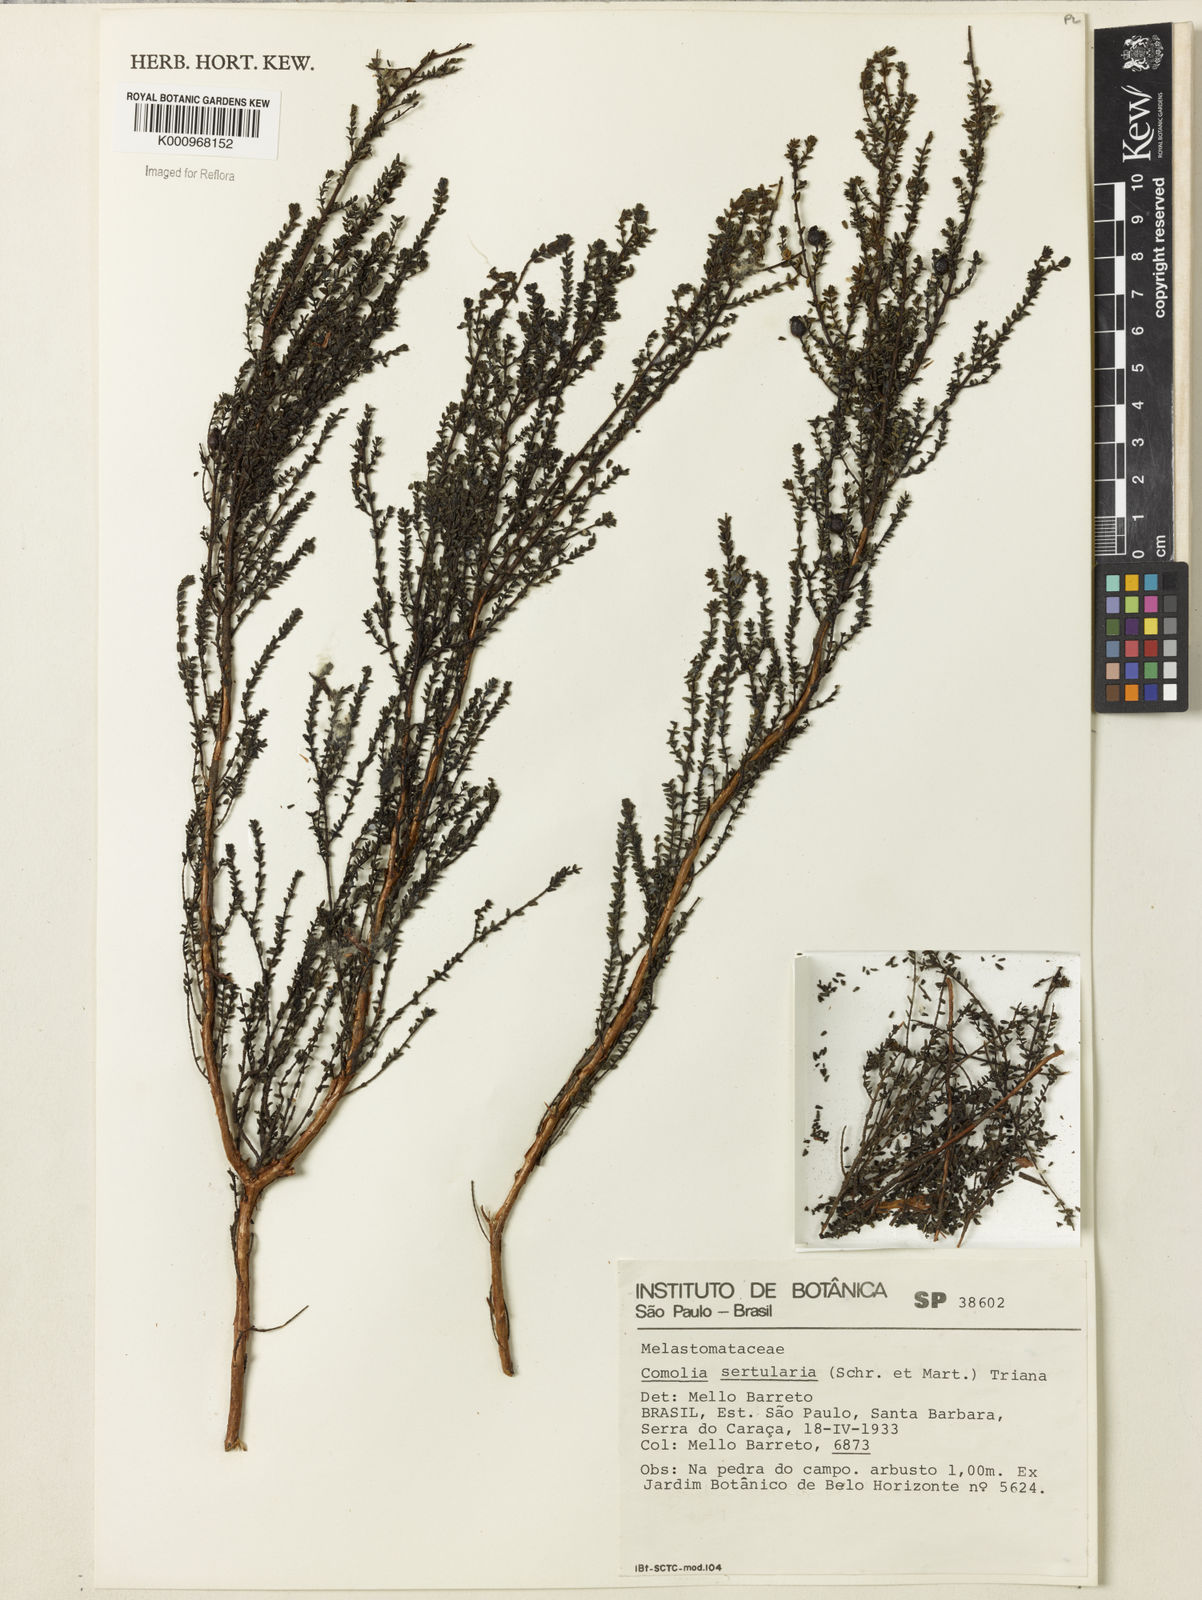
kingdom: Plantae
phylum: Tracheophyta
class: Magnoliopsida
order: Myrtales
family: Melastomataceae
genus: Fritzschia
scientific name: Fritzschia sertularia
